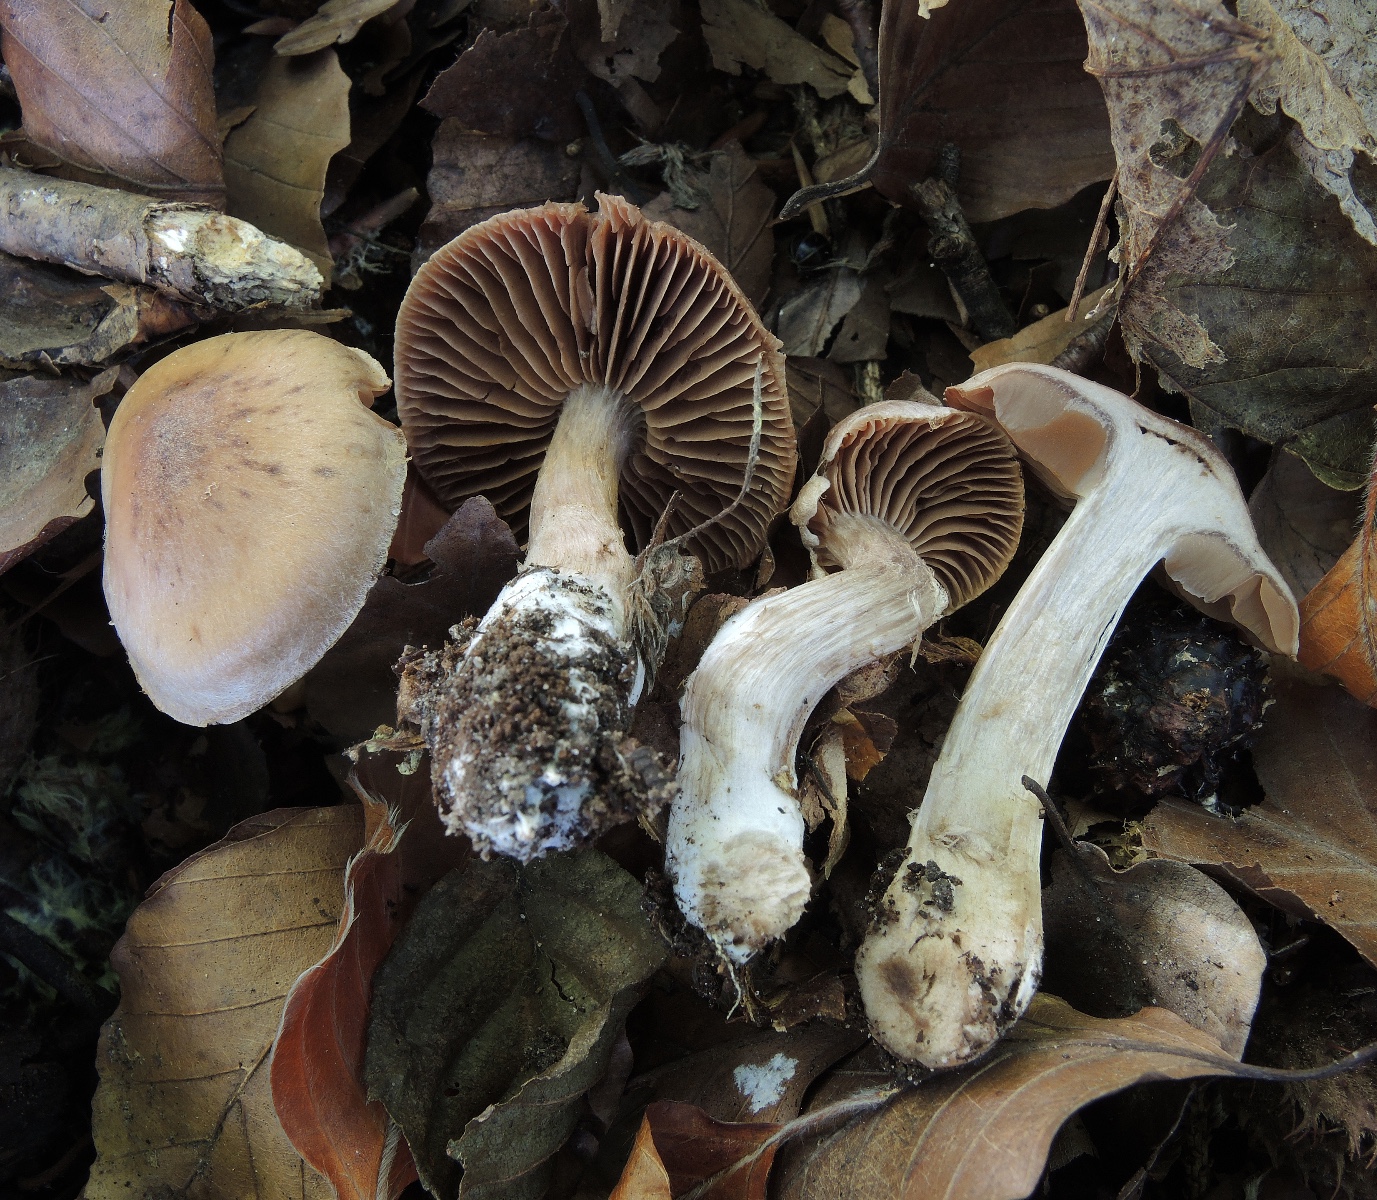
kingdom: Fungi
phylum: Basidiomycota
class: Agaricomycetes
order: Agaricales
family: Cortinariaceae
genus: Cortinarius
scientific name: Cortinarius subbulliardioides
